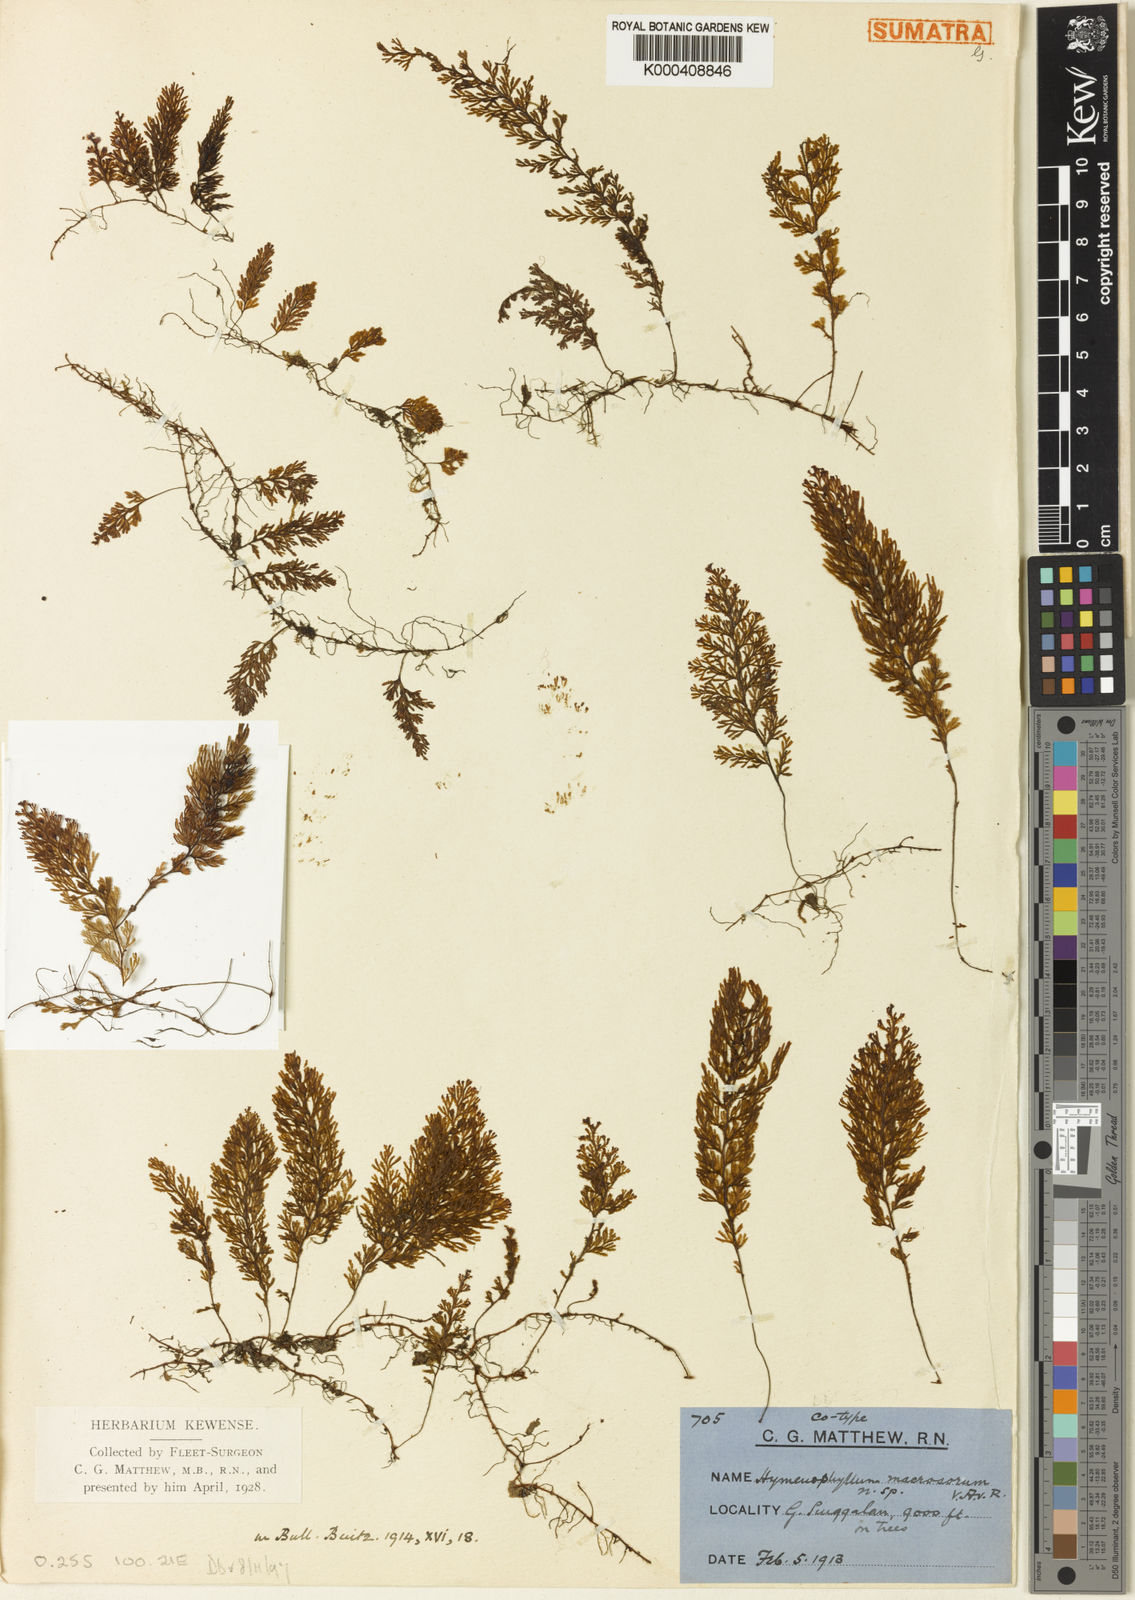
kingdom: Plantae
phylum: Tracheophyta
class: Polypodiopsida
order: Hymenophyllales
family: Hymenophyllaceae
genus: Hymenophyllum
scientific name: Hymenophyllum macrosorum
